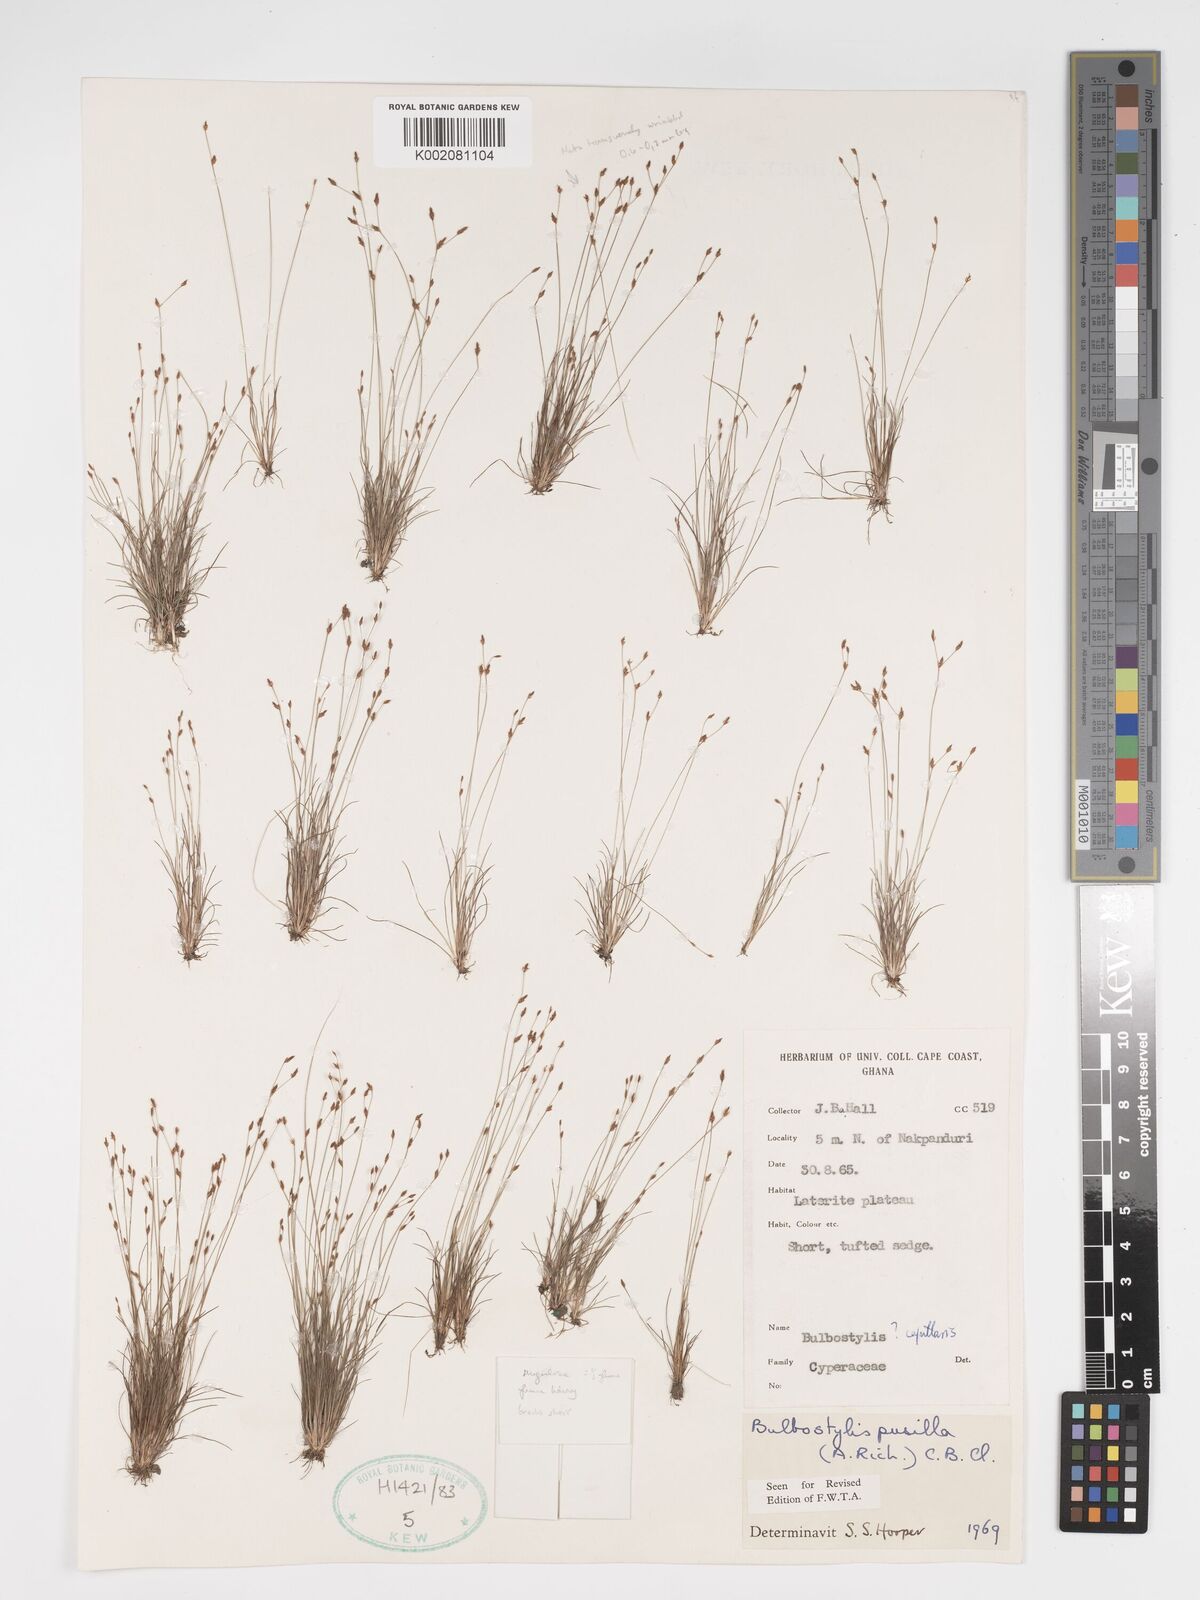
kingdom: Plantae
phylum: Tracheophyta
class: Liliopsida
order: Poales
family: Cyperaceae
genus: Bulbostylis
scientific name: Bulbostylis pusilla
